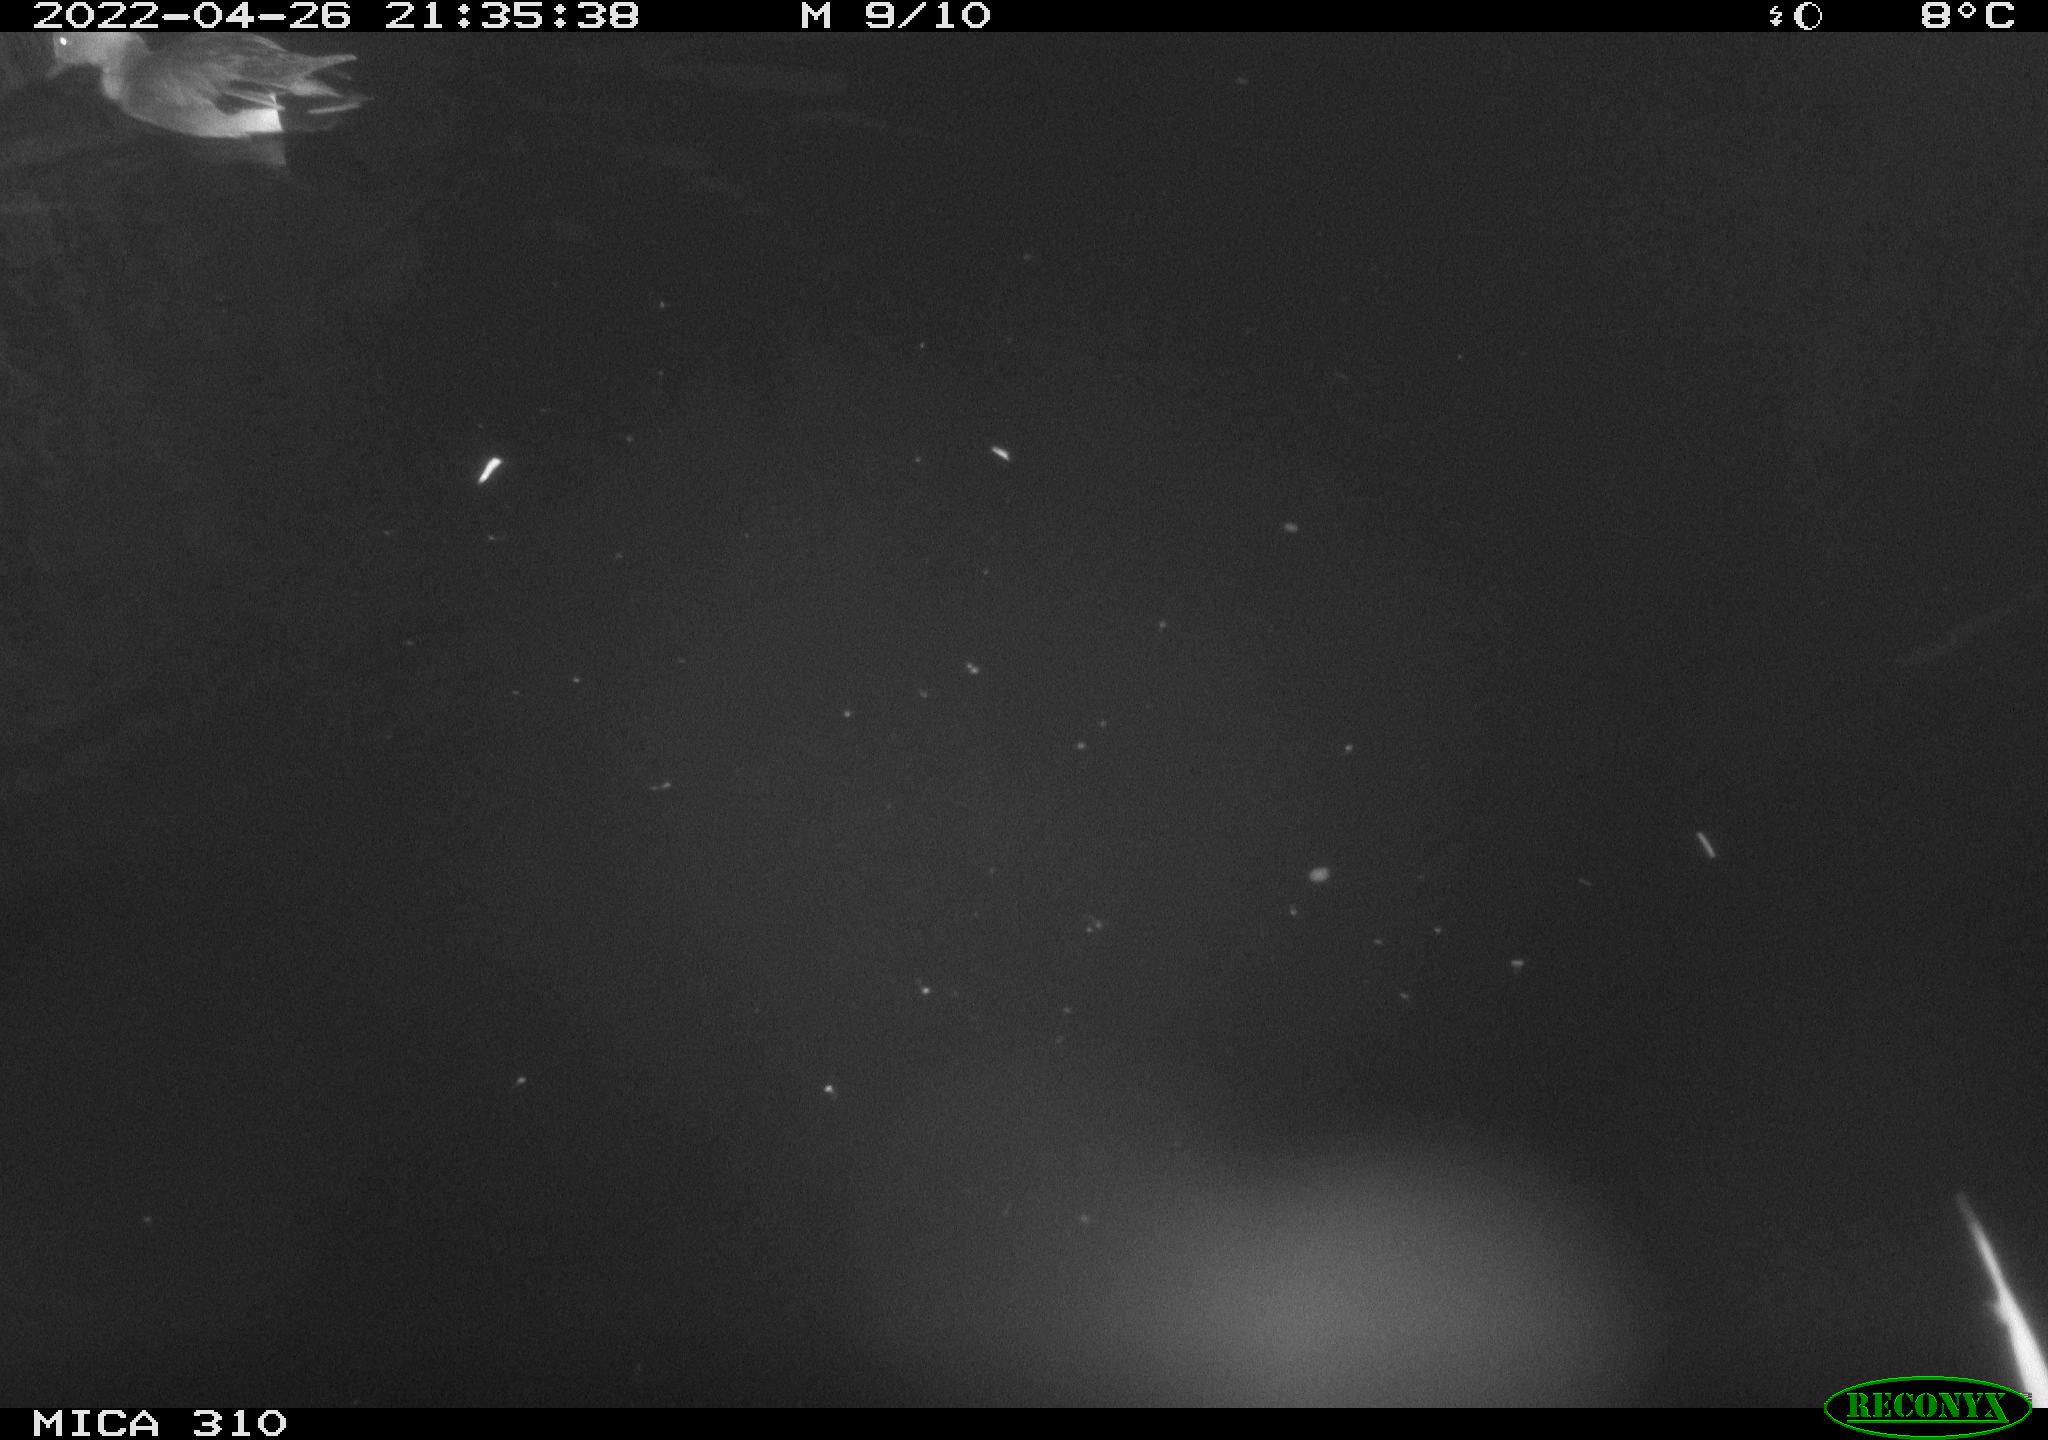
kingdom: Animalia
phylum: Chordata
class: Aves
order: Anseriformes
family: Anatidae
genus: Mareca
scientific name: Mareca strepera
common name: Gadwall
